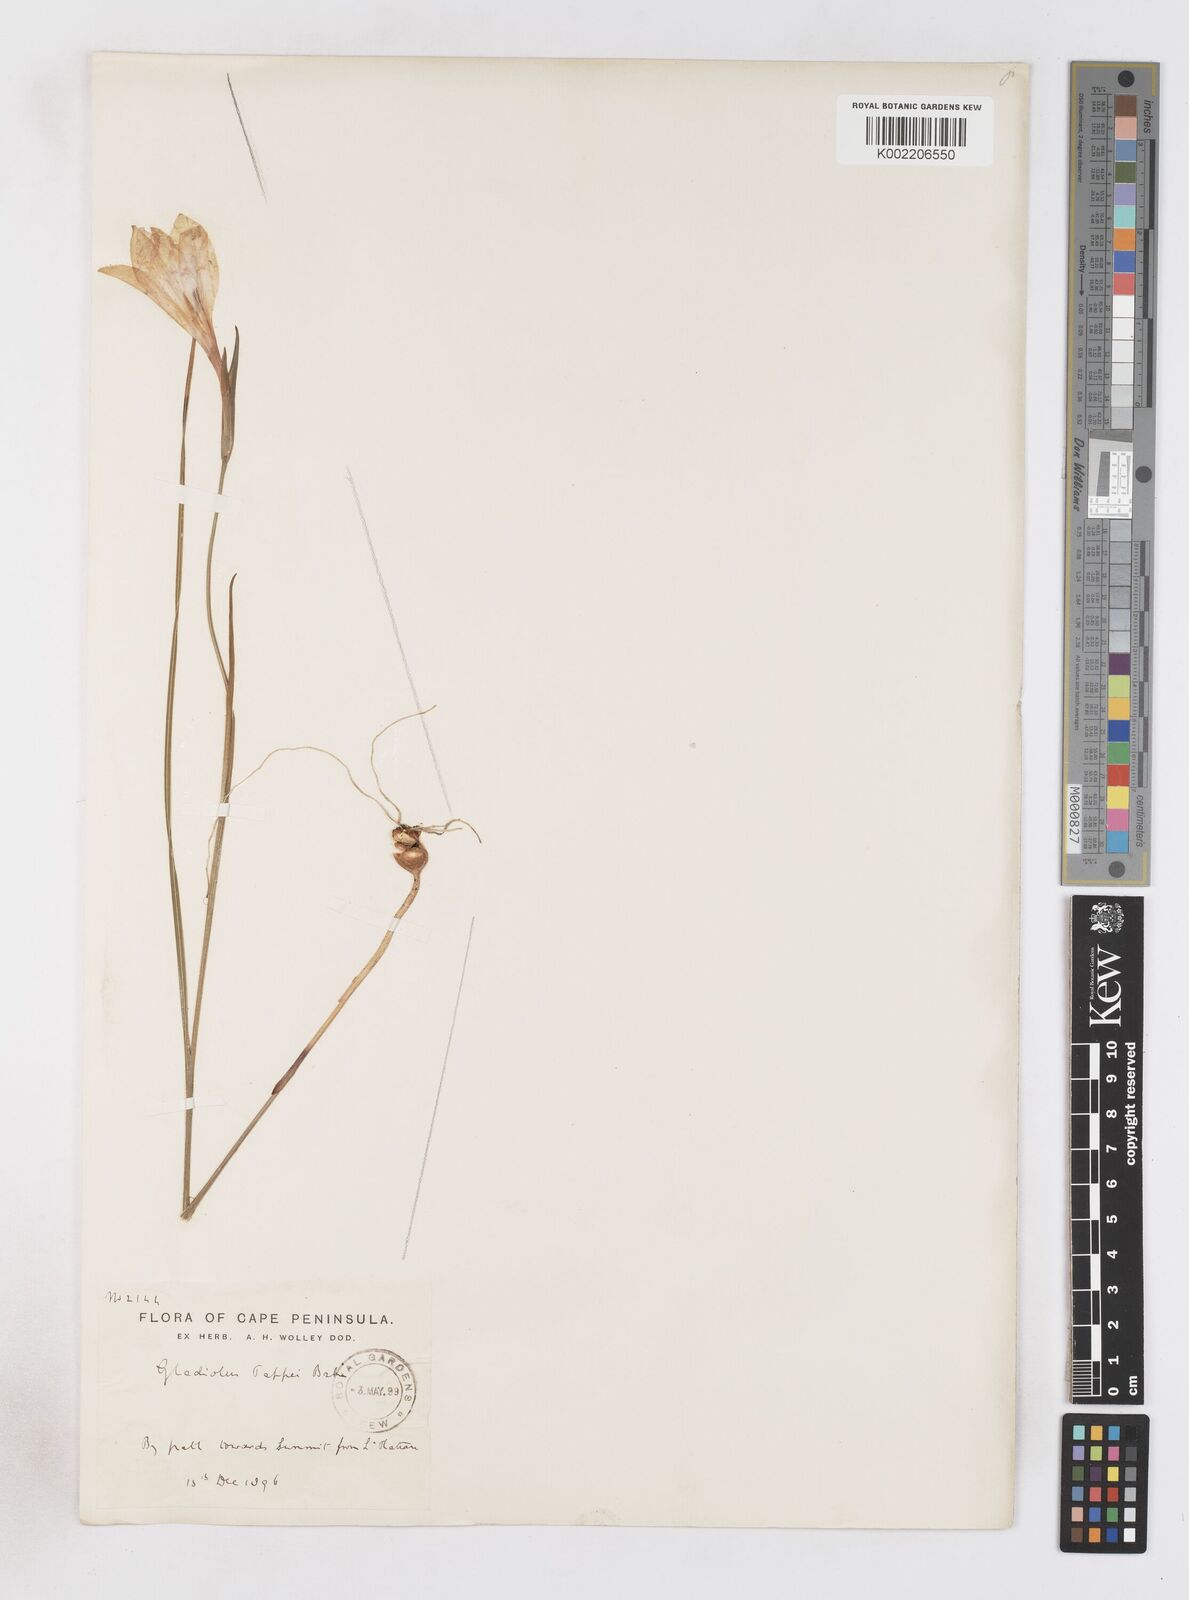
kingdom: Plantae
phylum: Tracheophyta
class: Liliopsida
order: Asparagales
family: Iridaceae
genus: Gladiolus
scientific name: Gladiolus pappei
